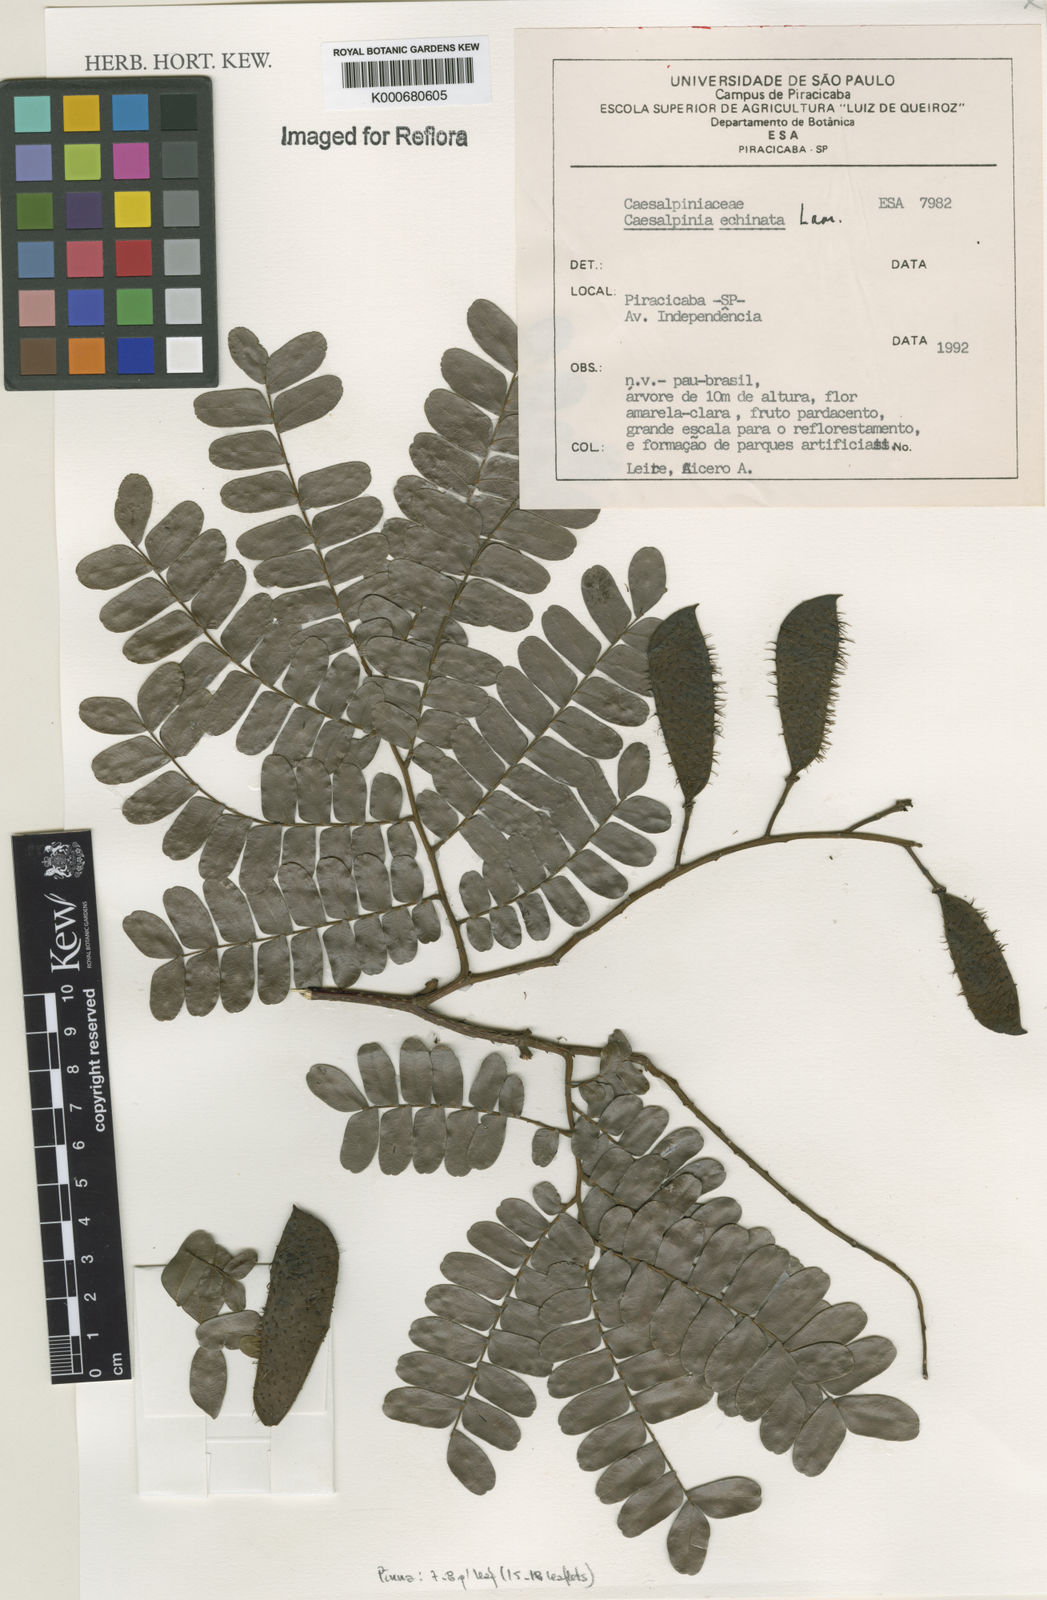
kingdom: Plantae
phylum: Tracheophyta
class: Magnoliopsida
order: Fabales
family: Fabaceae
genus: Paubrasilia
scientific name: Paubrasilia echinata
